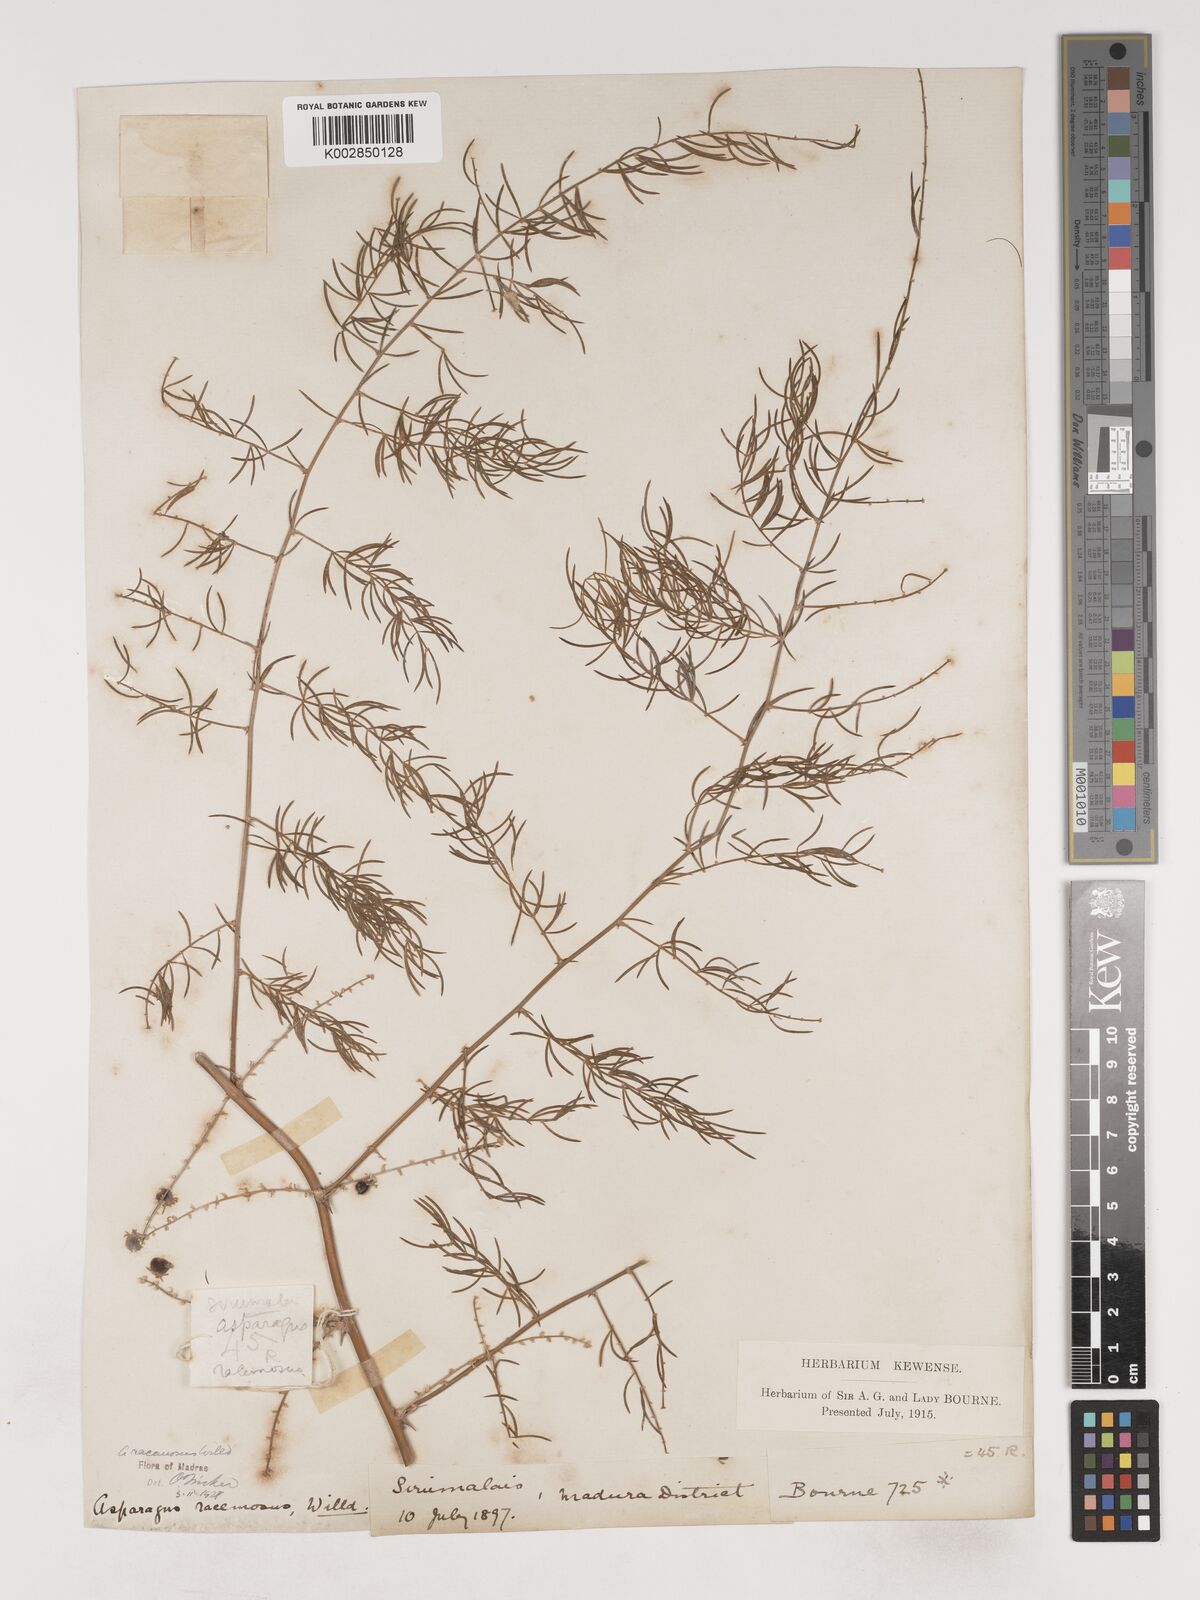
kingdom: Plantae
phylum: Tracheophyta
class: Liliopsida
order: Asparagales
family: Asparagaceae
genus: Asparagus
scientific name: Asparagus racemosus
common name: Asparagus-fern
